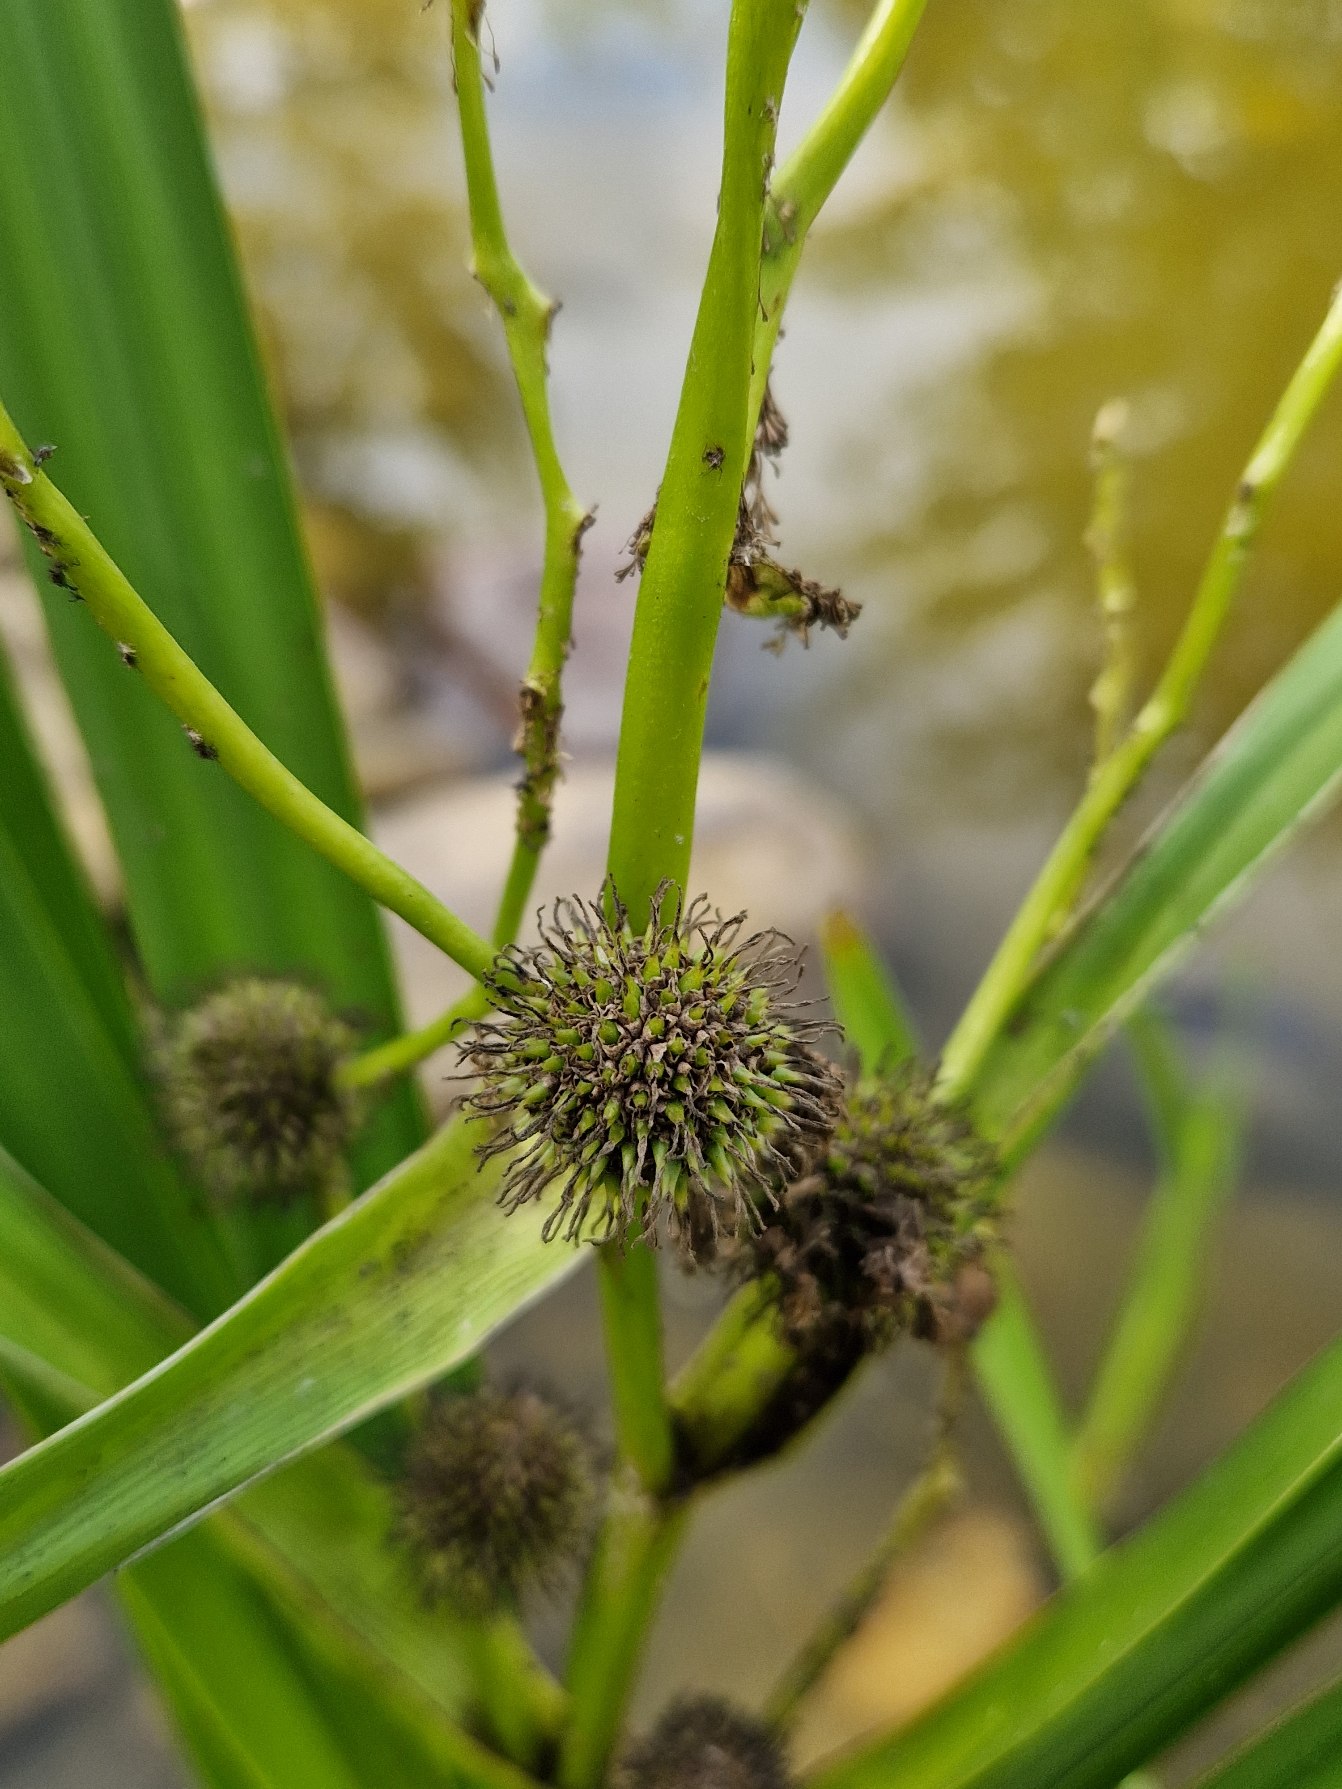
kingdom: Plantae
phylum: Tracheophyta
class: Liliopsida
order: Poales
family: Typhaceae
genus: Sparganium
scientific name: Sparganium erectum
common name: Grenet pindsvineknop
